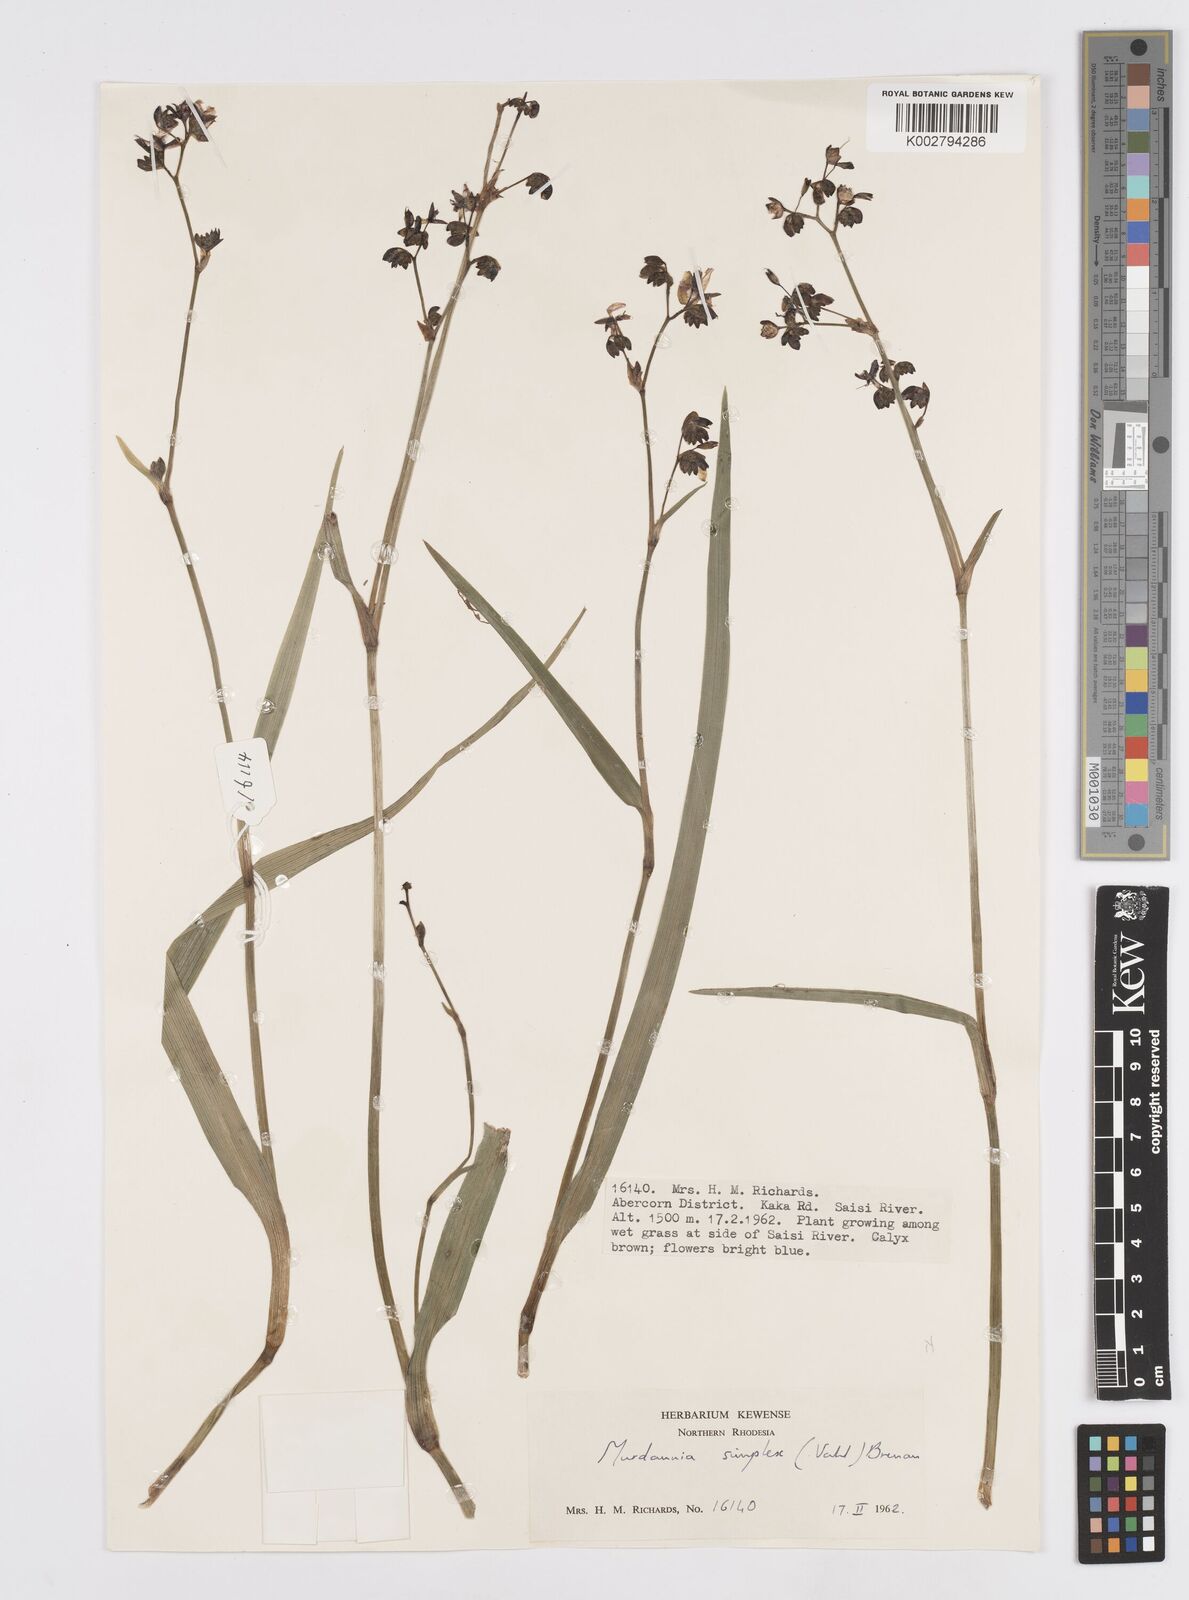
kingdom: Plantae
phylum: Tracheophyta
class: Liliopsida
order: Commelinales
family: Commelinaceae
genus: Murdannia
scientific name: Murdannia simplex
